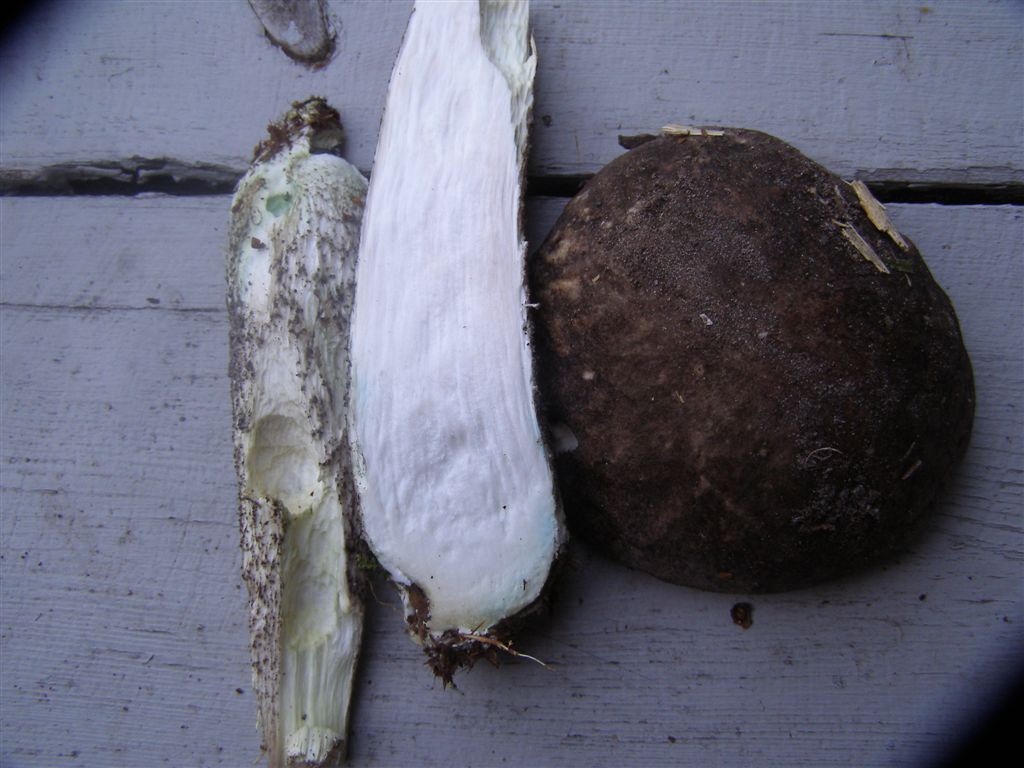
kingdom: Fungi
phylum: Basidiomycota
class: Agaricomycetes
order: Boletales
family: Boletaceae
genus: Leccinum
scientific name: Leccinum variicolor
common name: flammet skælrørhat
